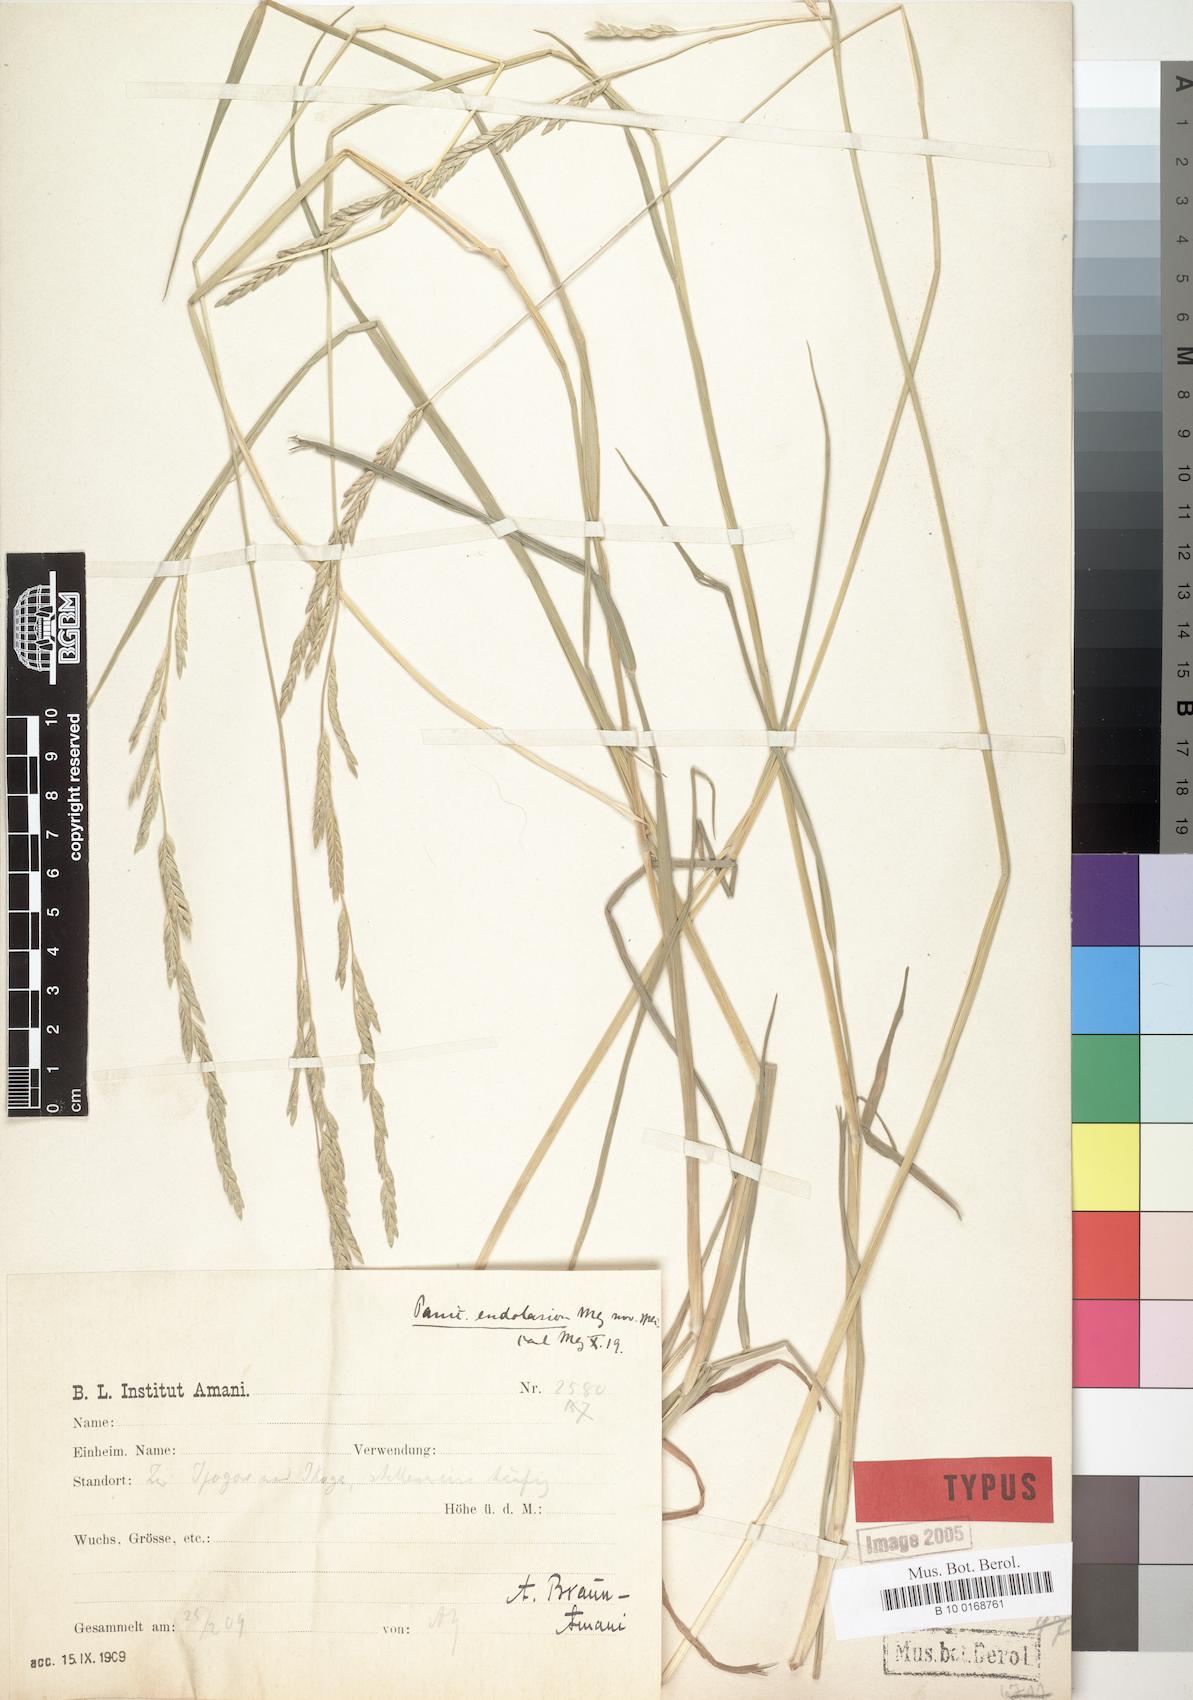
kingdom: Plantae
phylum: Tracheophyta
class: Liliopsida
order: Poales
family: Poaceae
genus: Entolasia
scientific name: Entolasia imbricata
